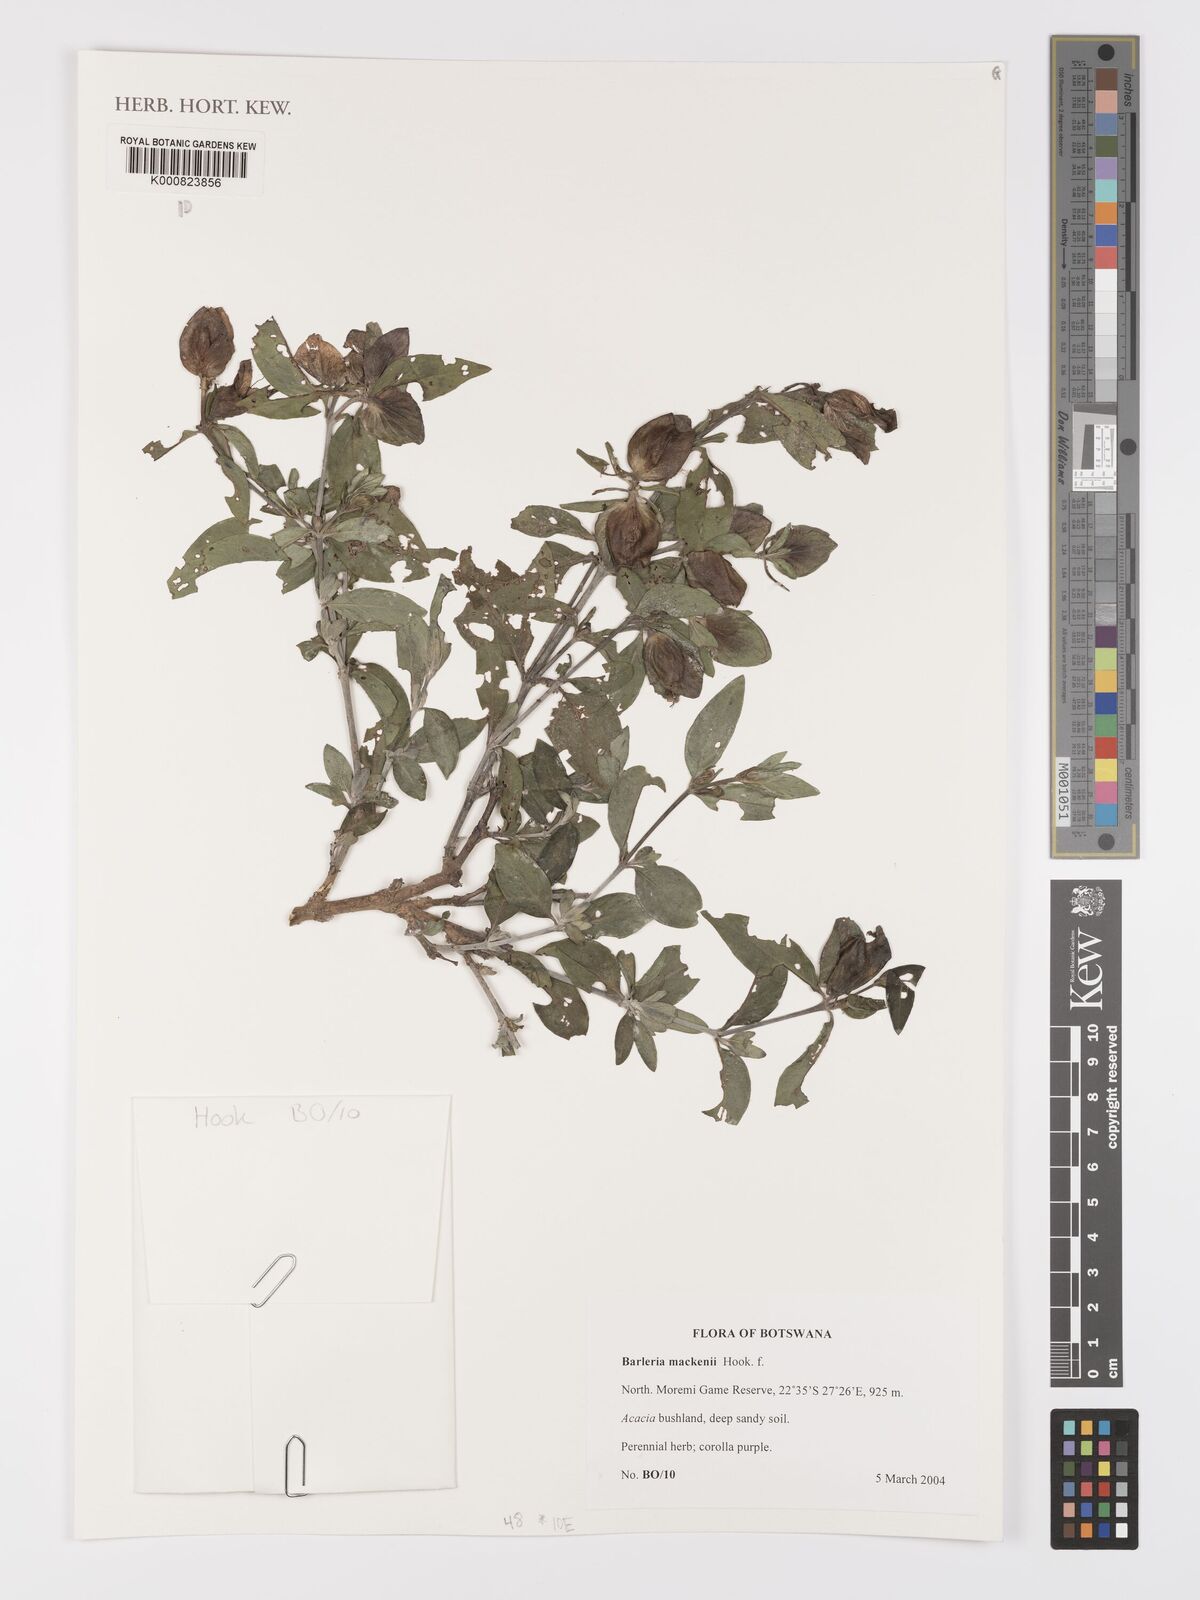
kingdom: Plantae
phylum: Tracheophyta
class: Magnoliopsida
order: Lamiales
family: Acanthaceae
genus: Barleria
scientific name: Barleria mackenii
